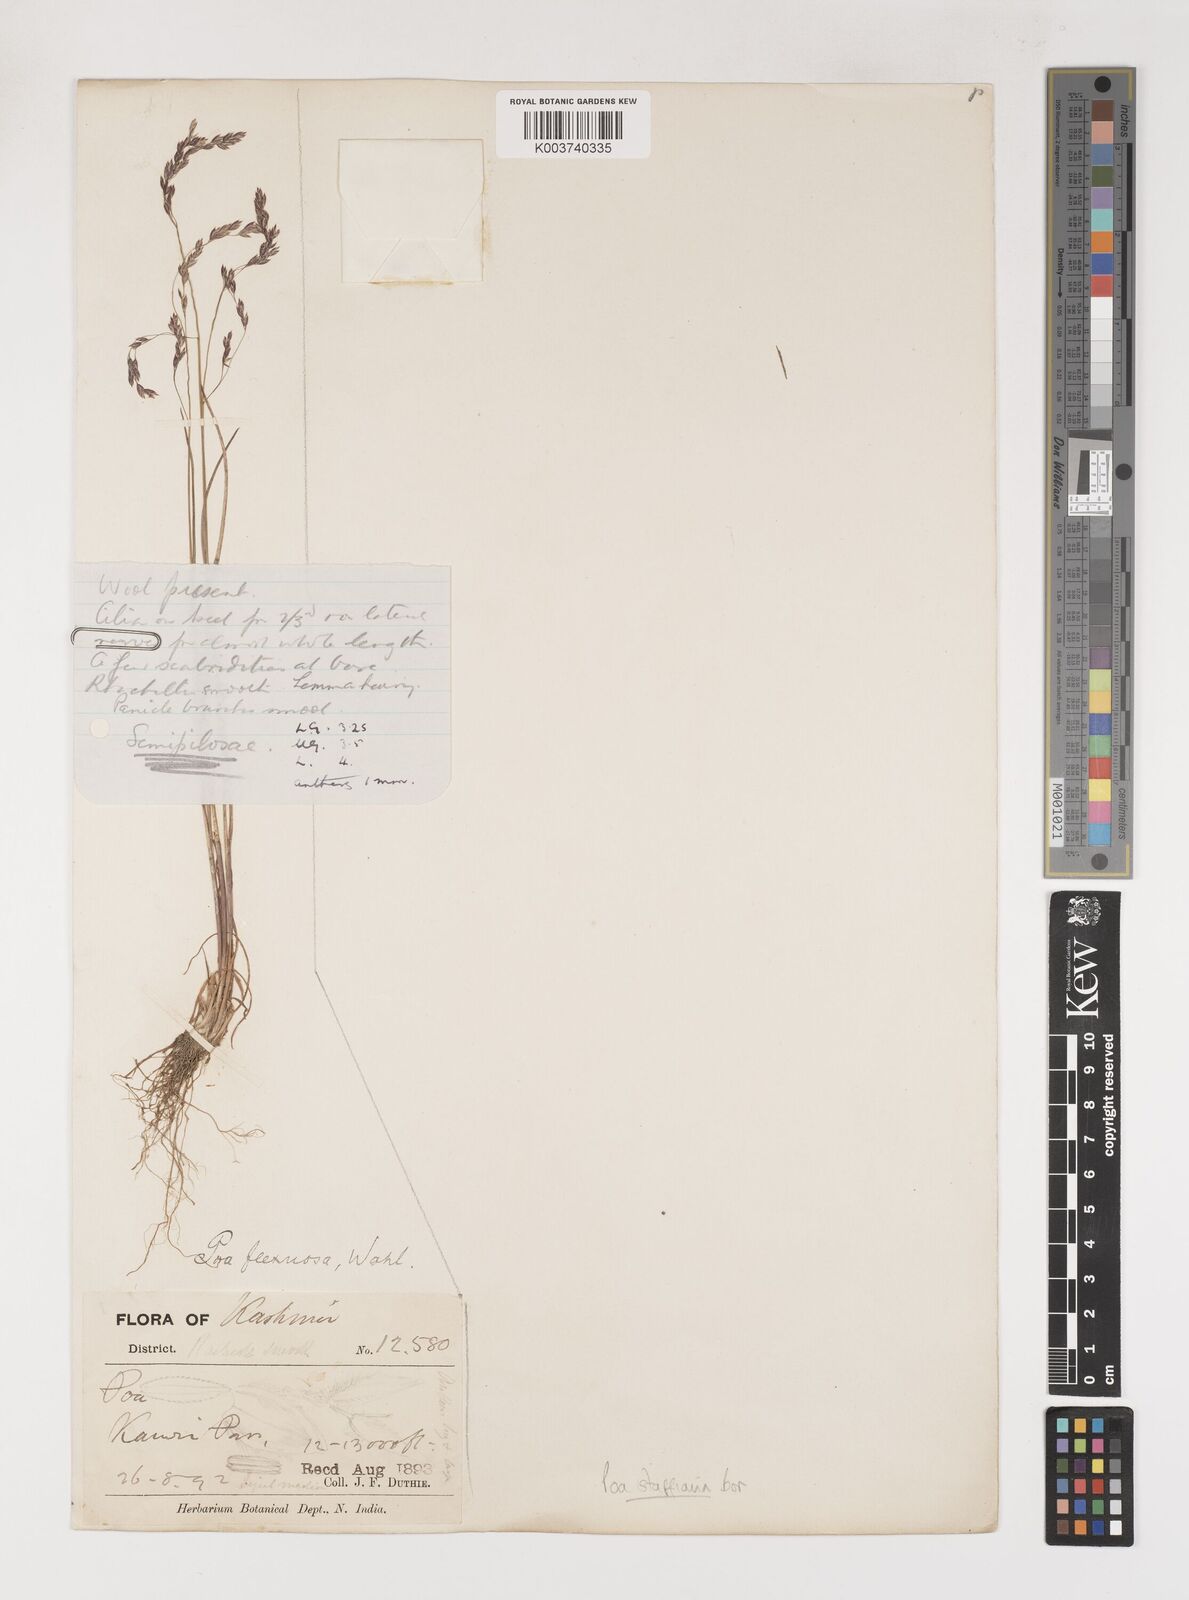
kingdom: Plantae
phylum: Tracheophyta
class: Liliopsida
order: Poales
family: Poaceae
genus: Poa
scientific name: Poa stapfiana
